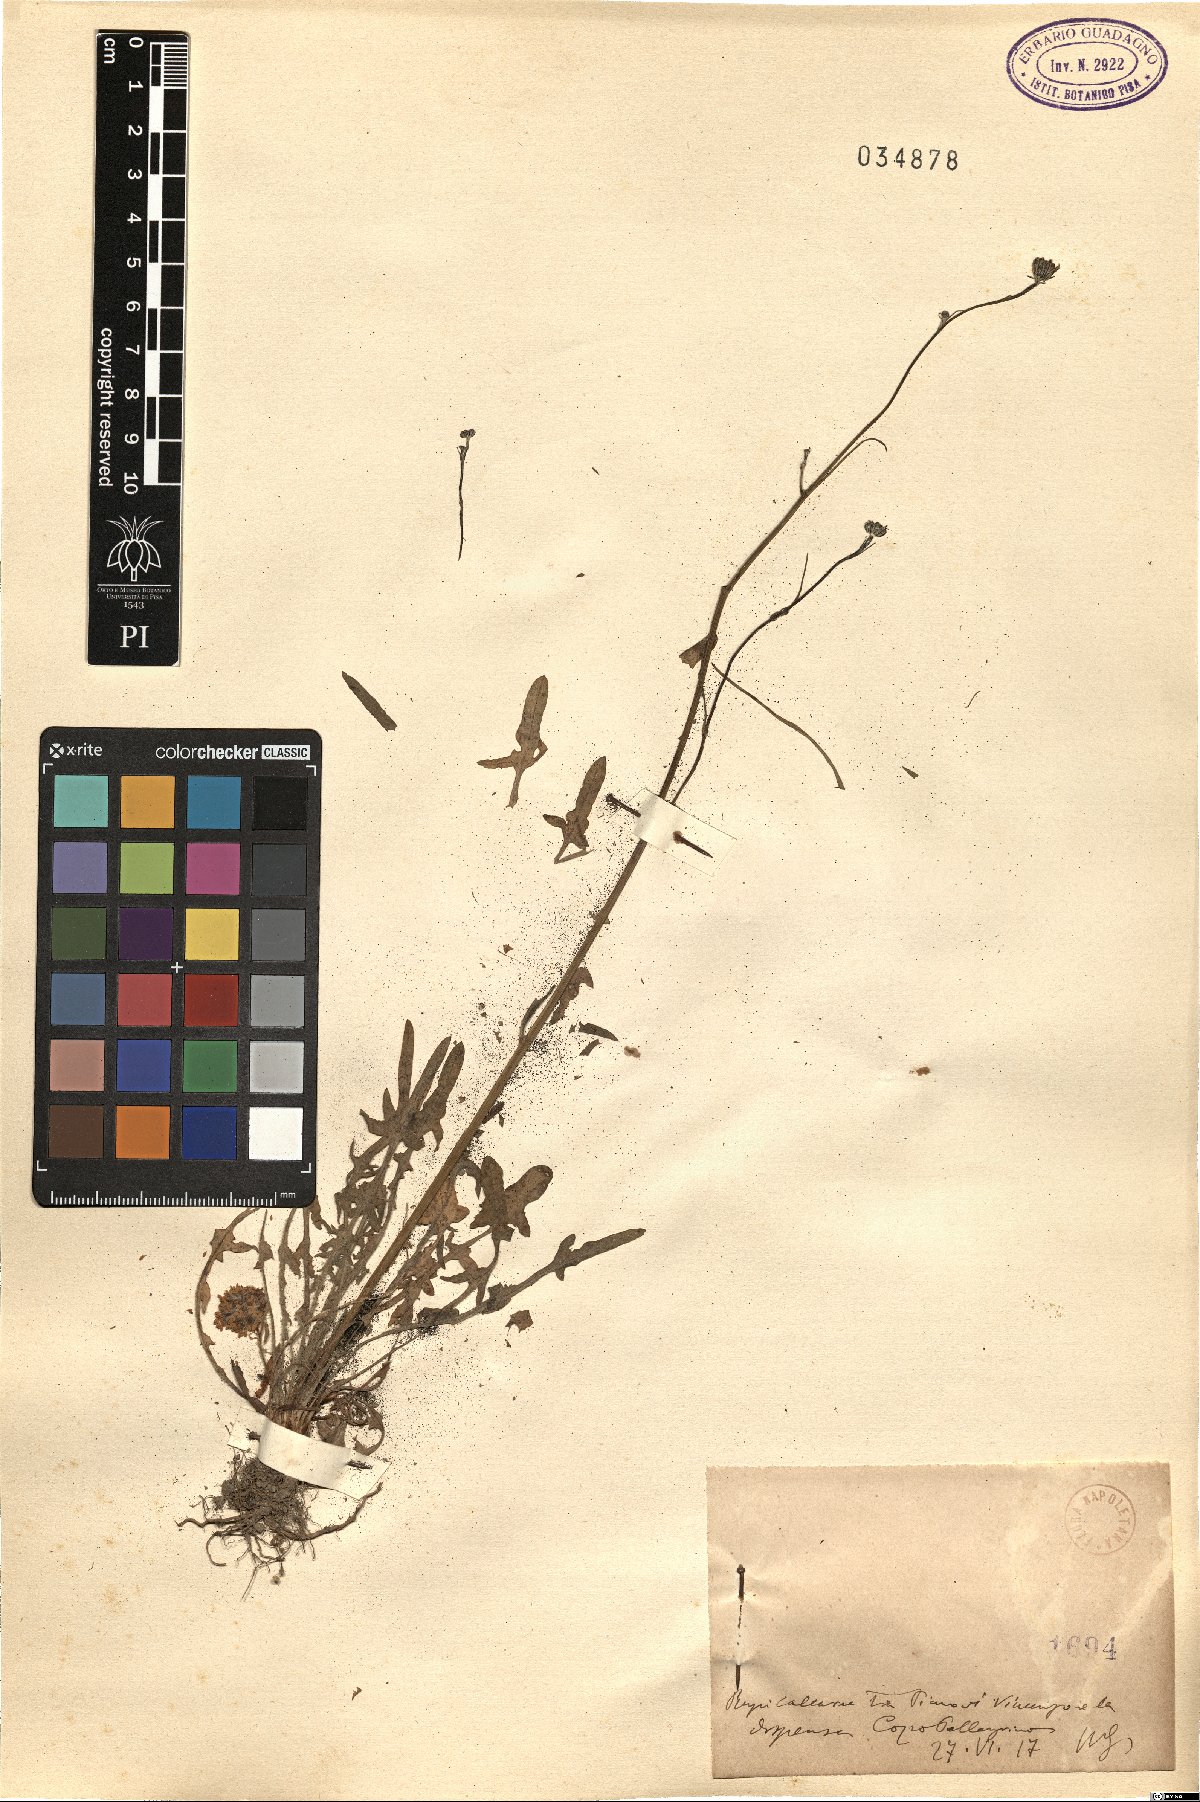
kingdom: Plantae
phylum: Tracheophyta
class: Magnoliopsida
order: Asterales
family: Asteraceae
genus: Hypochaeris
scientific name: Hypochaeris
